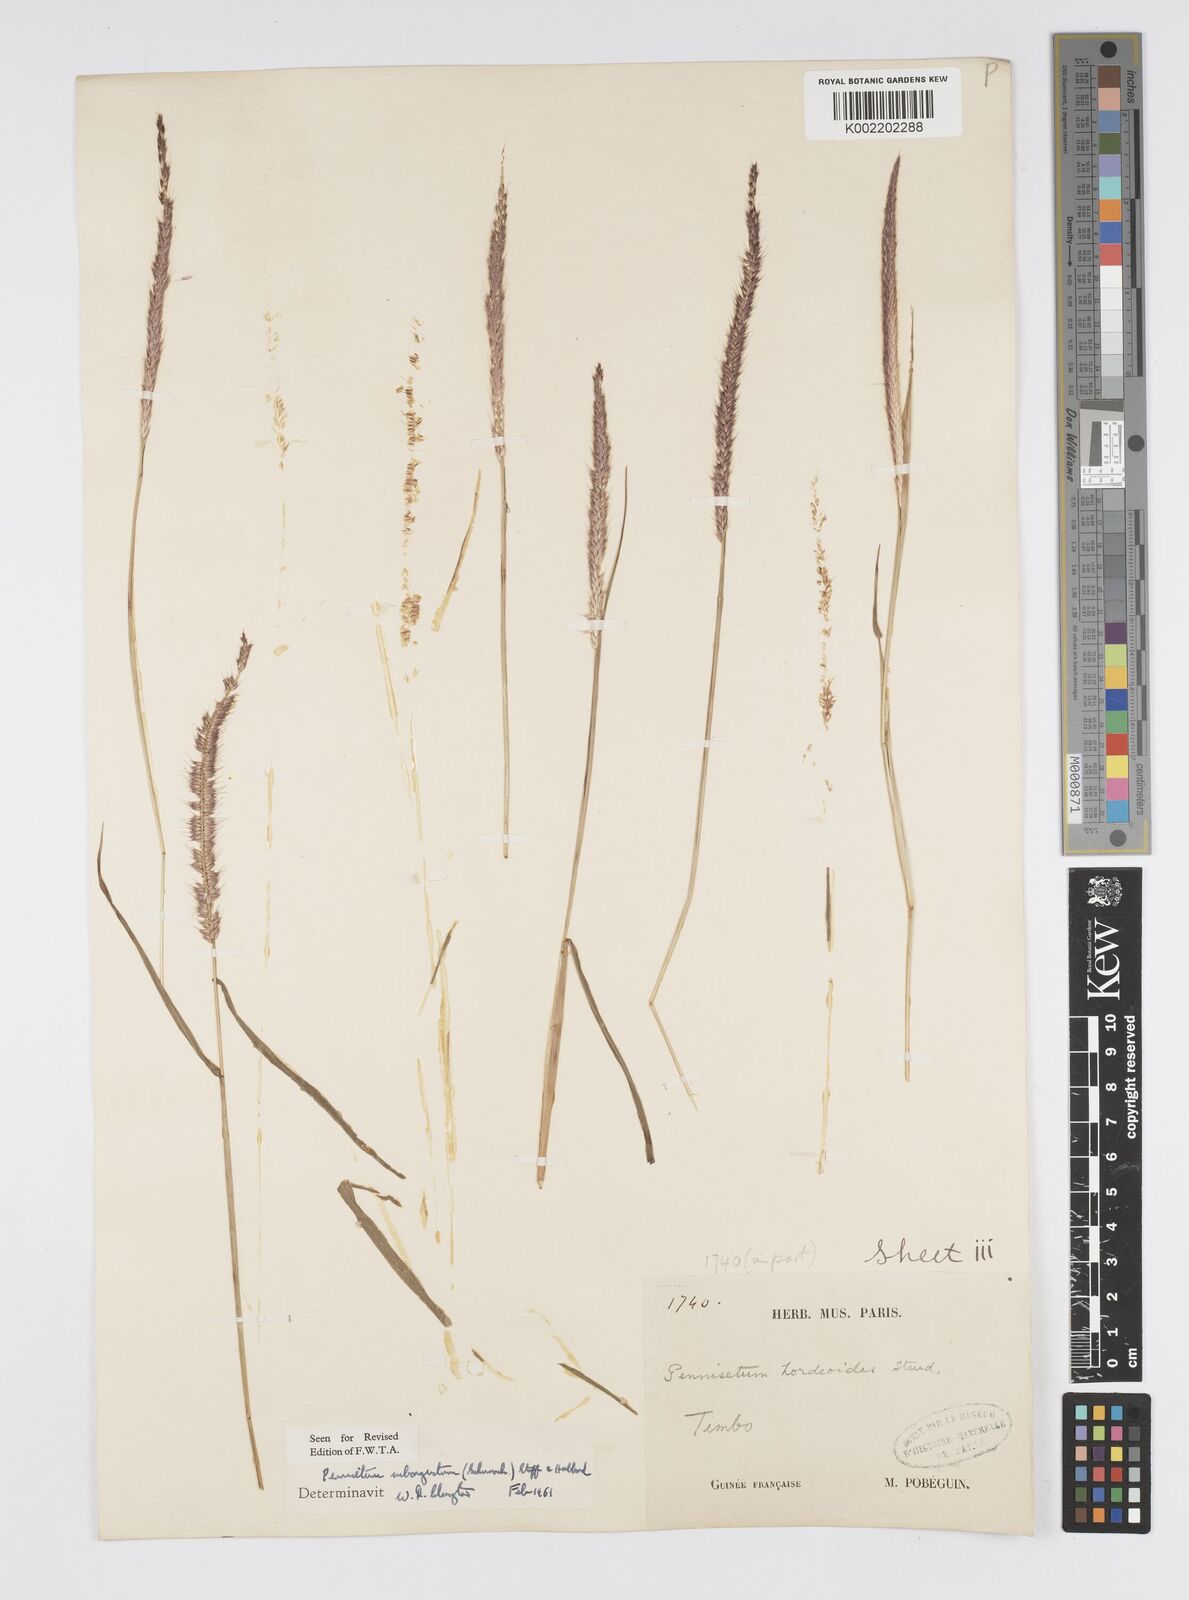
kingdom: Plantae
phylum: Tracheophyta
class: Liliopsida
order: Poales
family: Poaceae
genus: Setaria
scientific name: Setaria parviflora
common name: Knotroot bristle-grass
